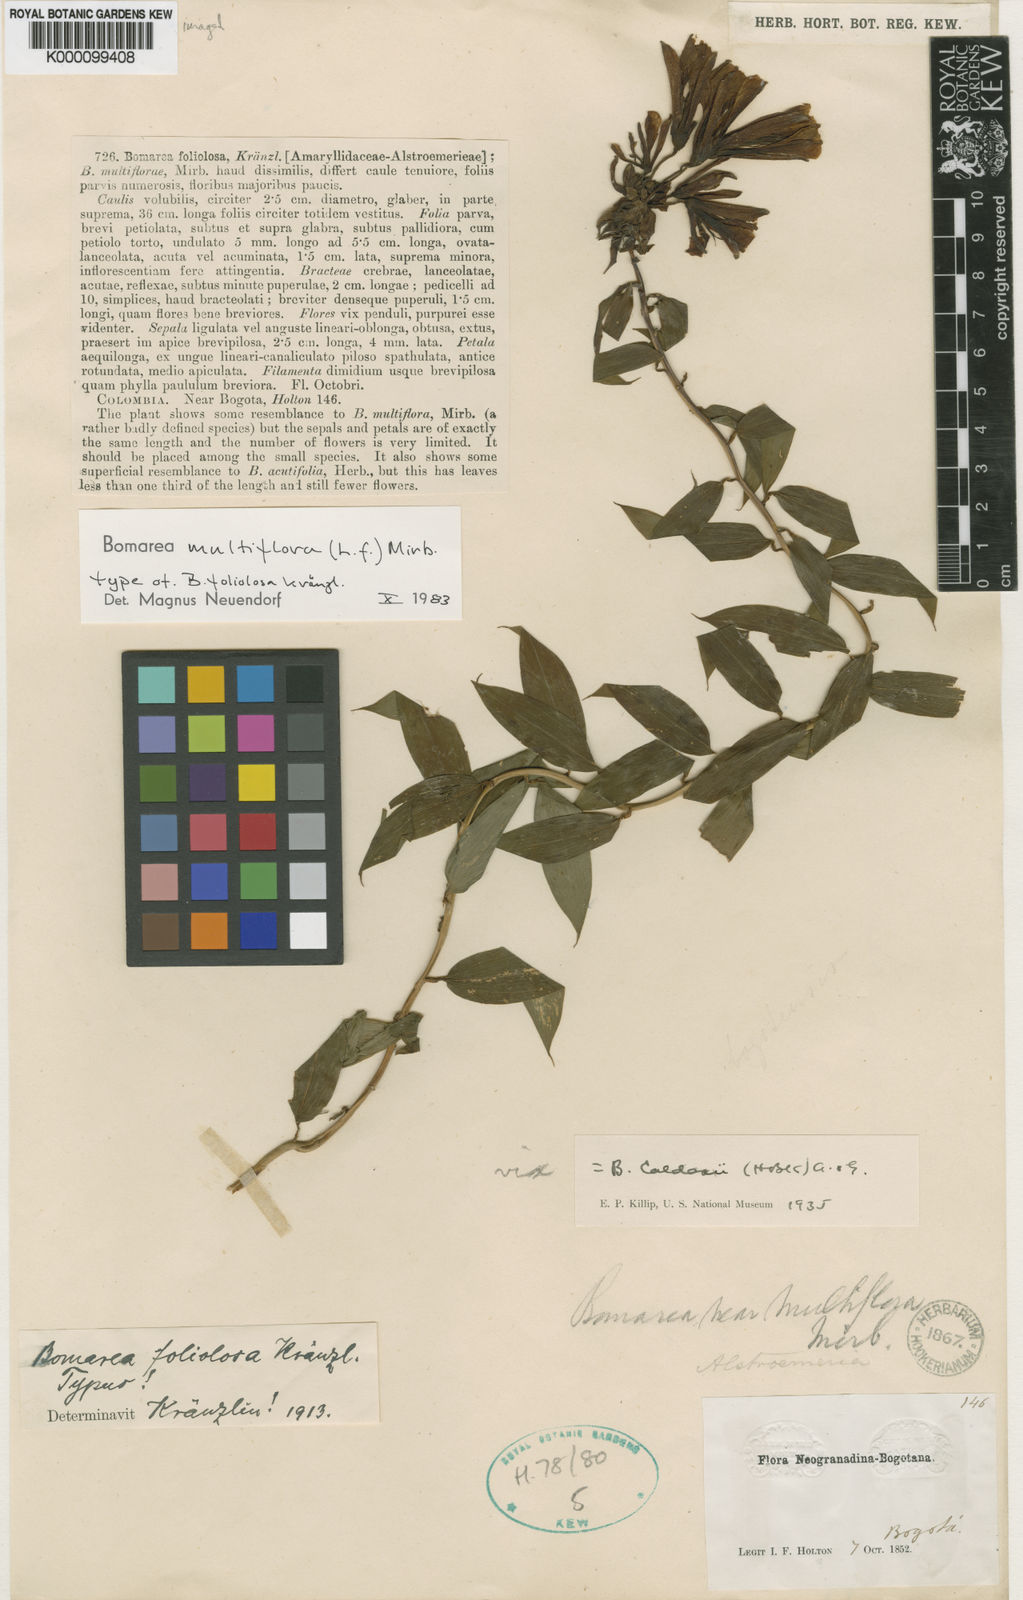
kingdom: Plantae
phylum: Tracheophyta
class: Liliopsida
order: Liliales
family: Alstroemeriaceae
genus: Bomarea
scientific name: Bomarea multiflora
